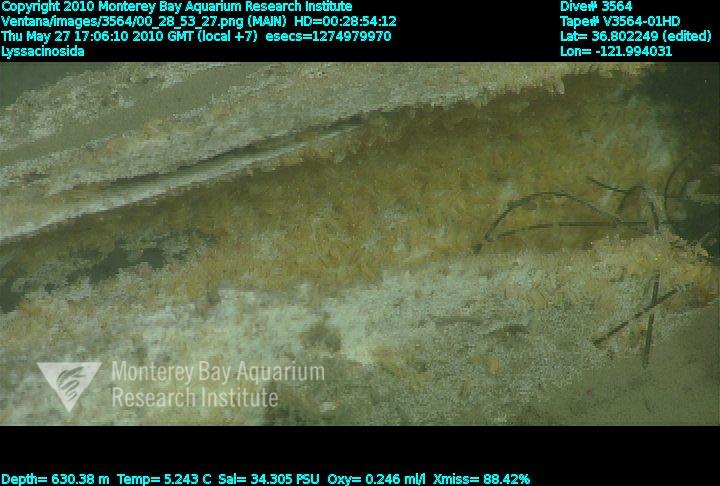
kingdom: Animalia
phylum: Porifera
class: Hexactinellida
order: Lyssacinosida
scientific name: Lyssacinosida
